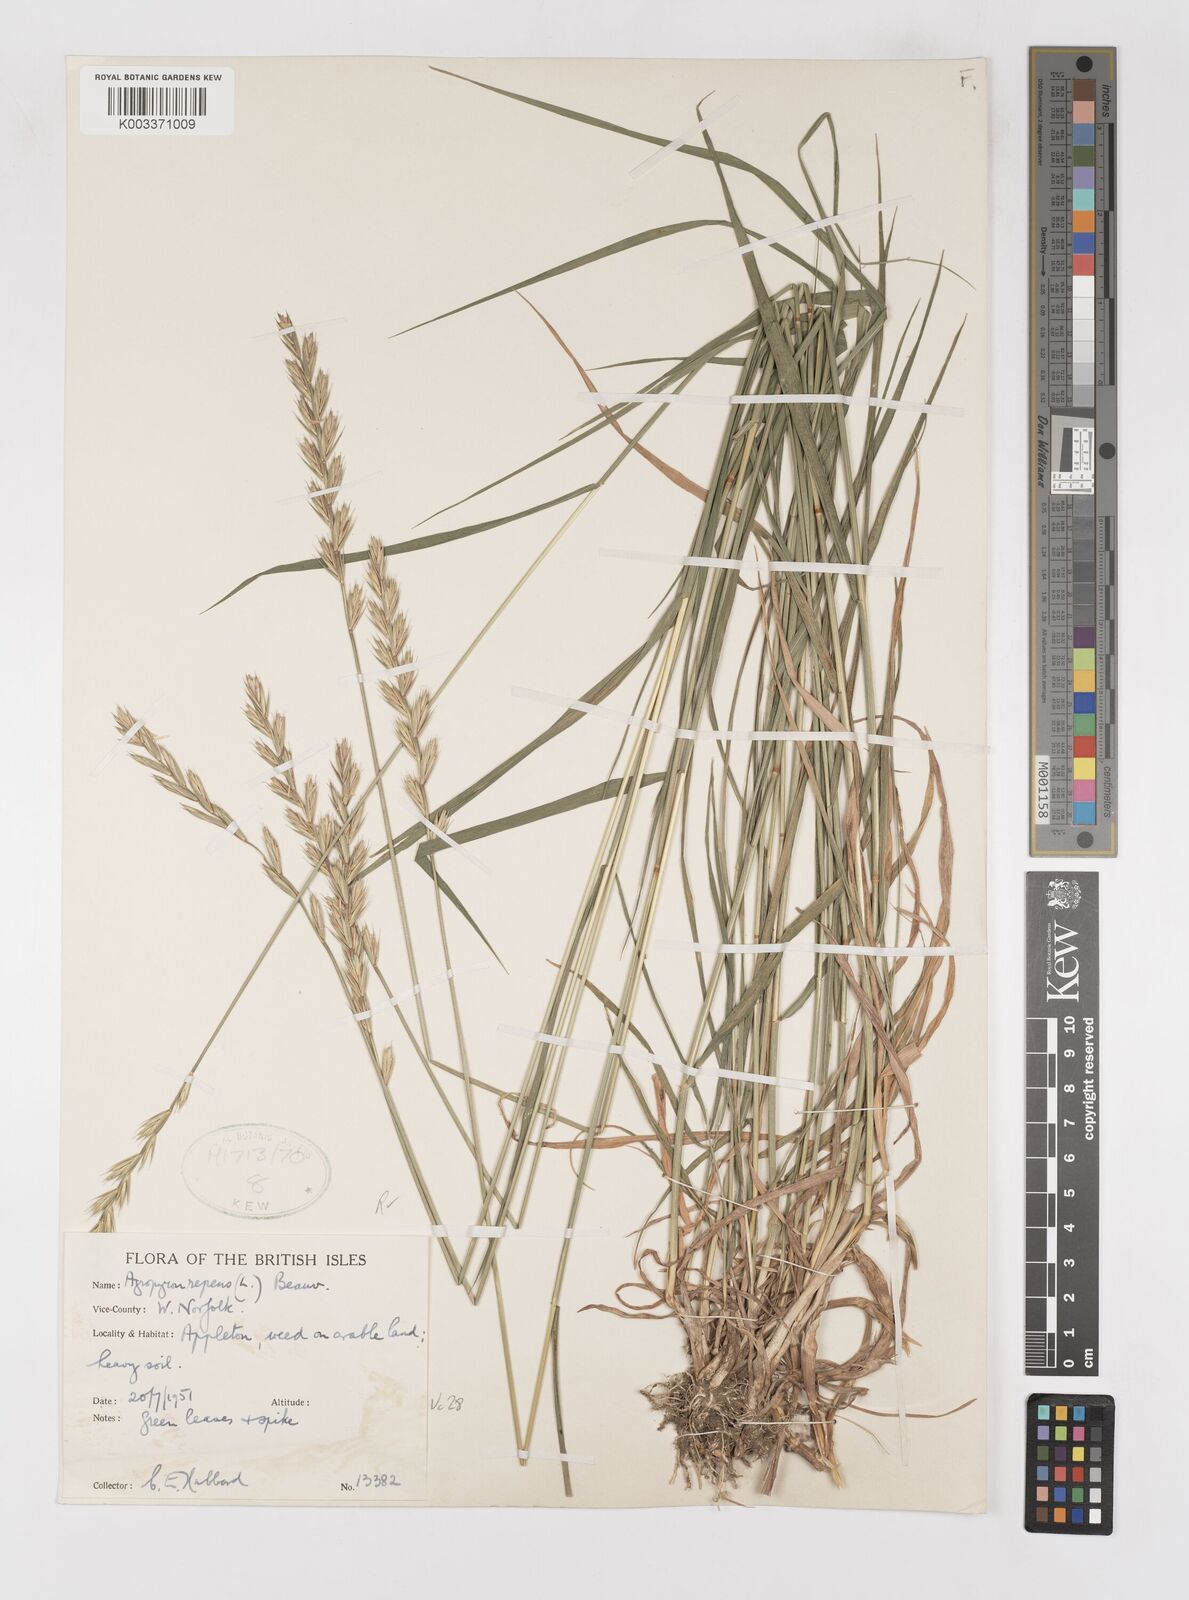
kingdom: Plantae
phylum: Tracheophyta
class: Liliopsida
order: Poales
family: Poaceae
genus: Elymus
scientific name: Elymus repens
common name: Quackgrass
